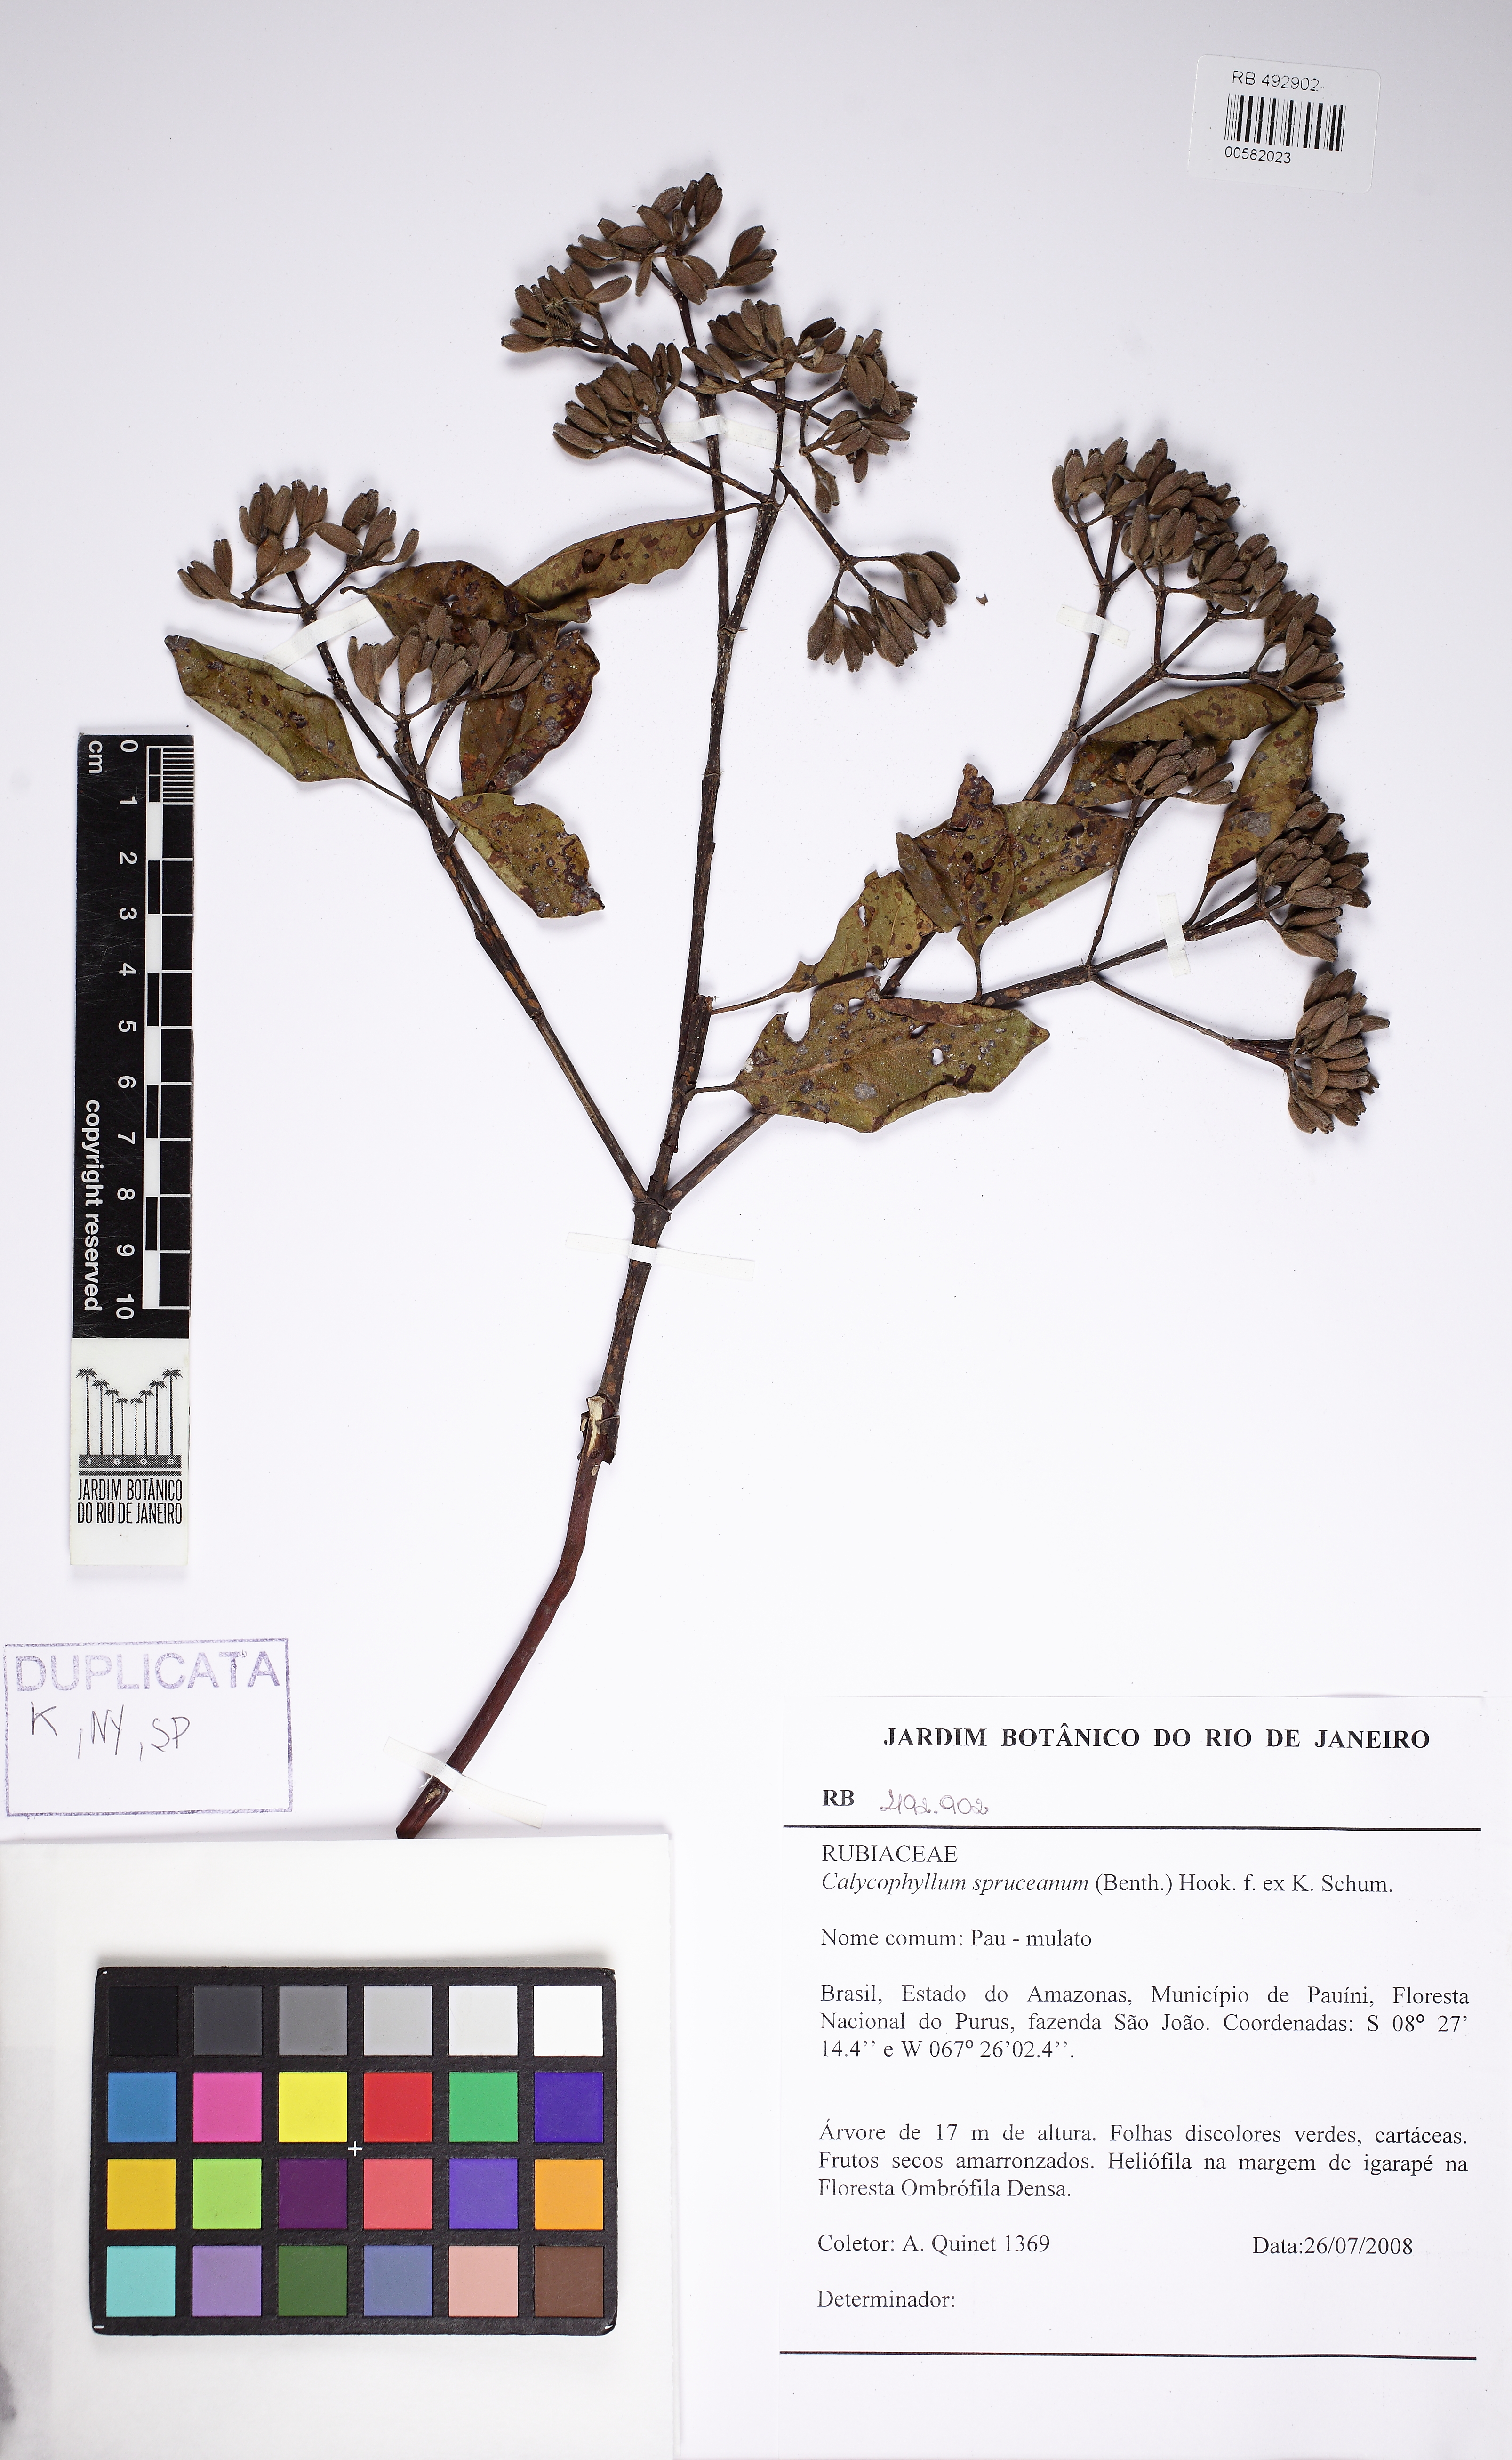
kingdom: Plantae
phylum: Tracheophyta
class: Magnoliopsida
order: Gentianales
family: Rubiaceae
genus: Calycophyllum
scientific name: Calycophyllum spruceanum
